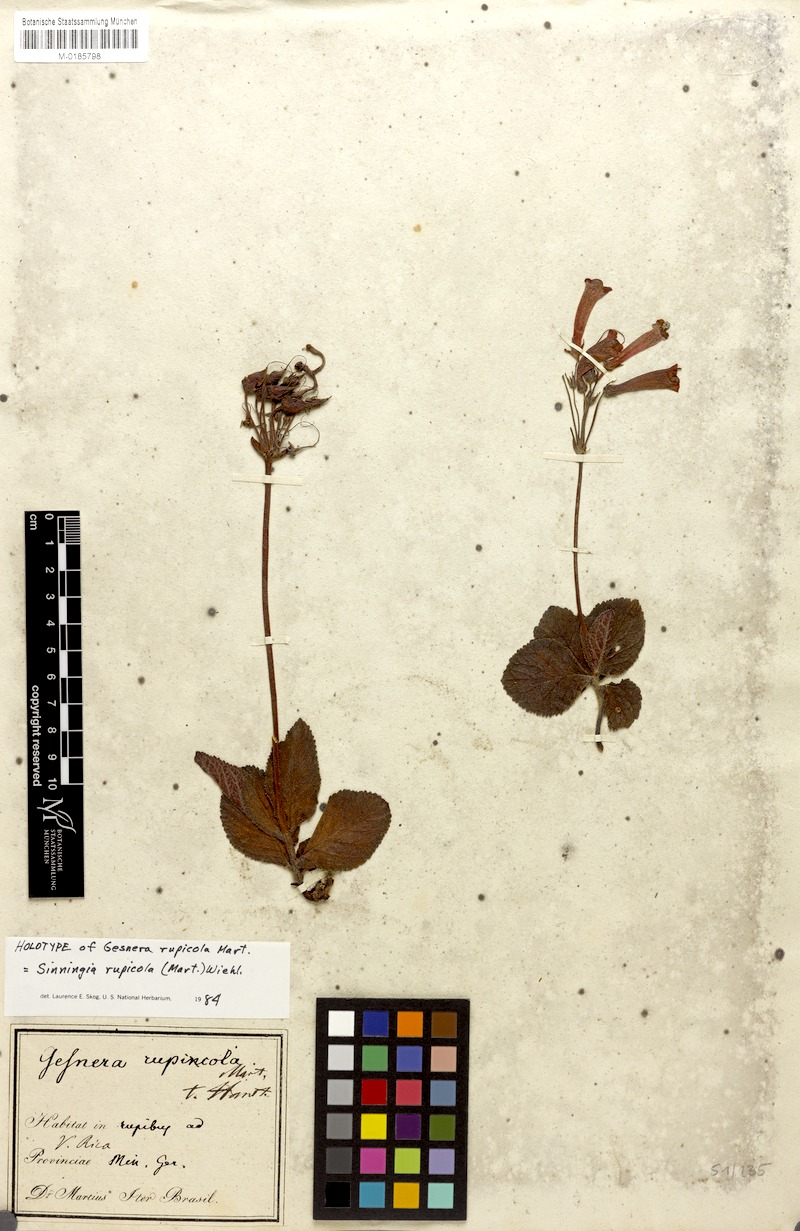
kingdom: Plantae
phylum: Tracheophyta
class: Magnoliopsida
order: Lamiales
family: Gesneriaceae
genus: Sinningia
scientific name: Sinningia rupicola
